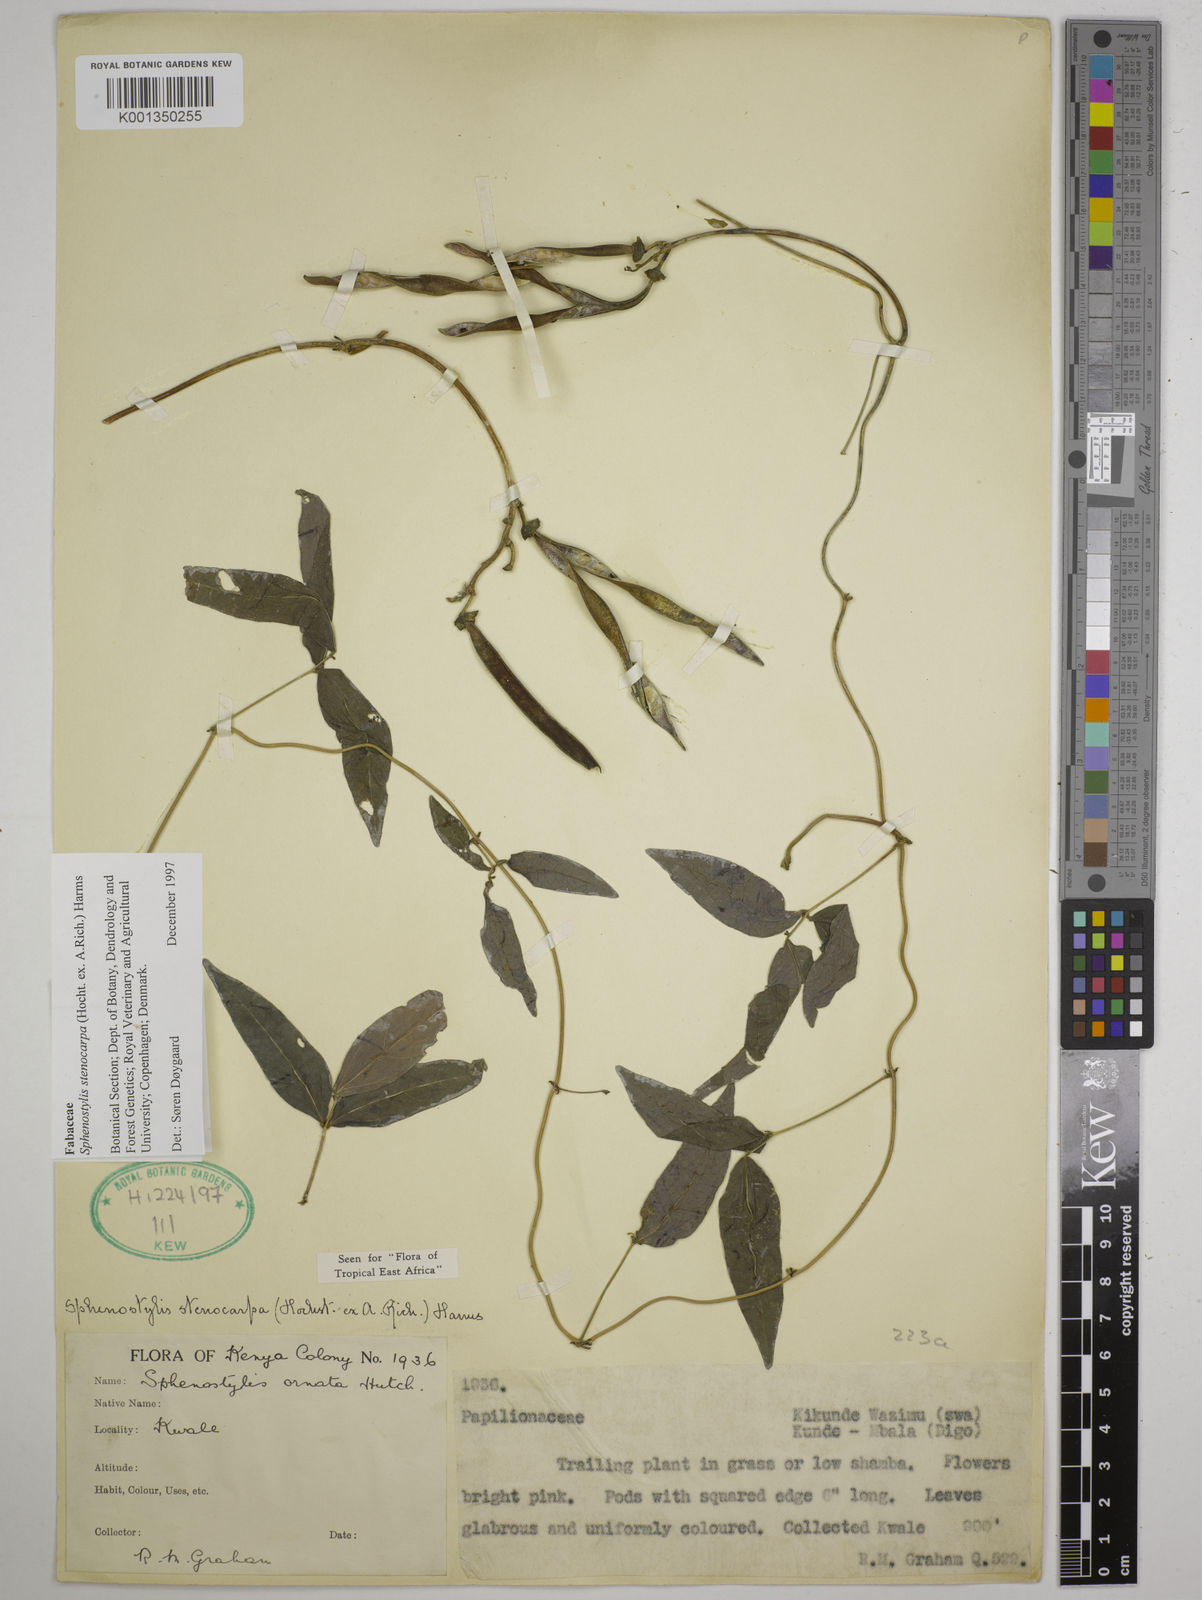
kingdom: Plantae
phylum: Tracheophyta
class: Magnoliopsida
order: Fabales
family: Fabaceae
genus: Sphenostylis
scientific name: Sphenostylis stenocarpa
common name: Yam-pea
